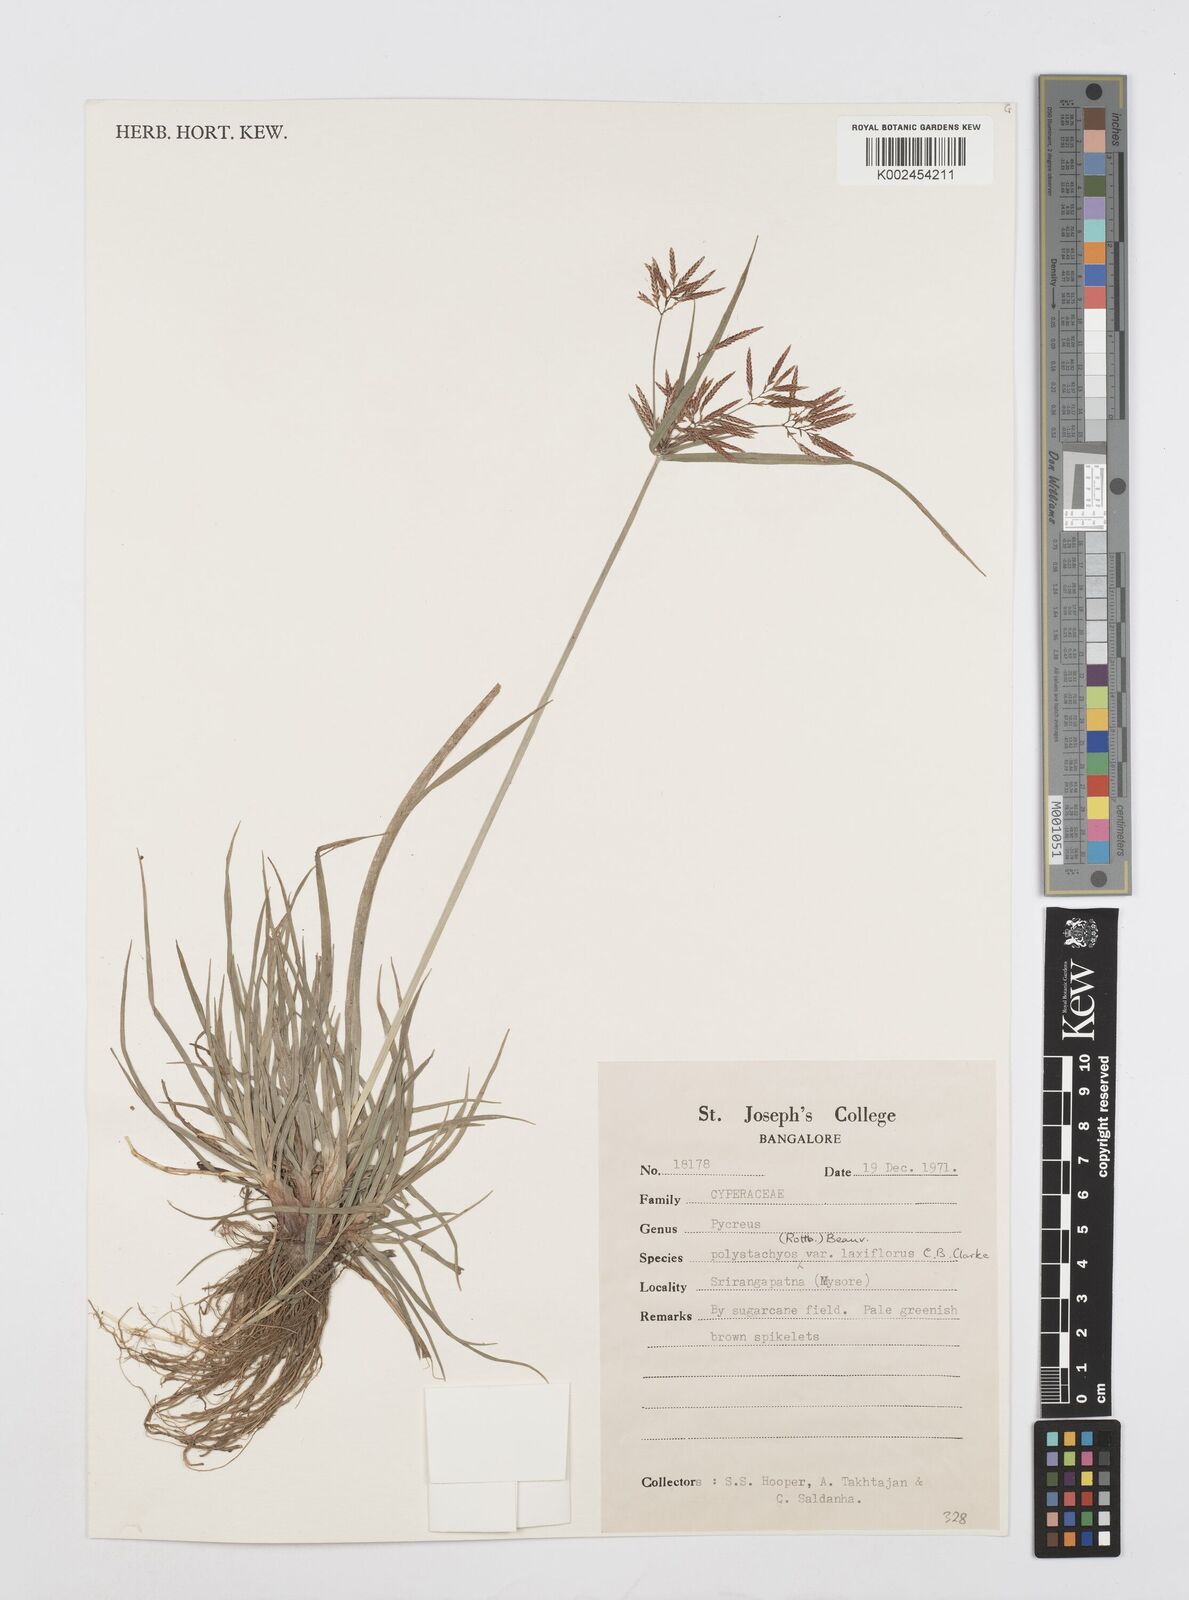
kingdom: Plantae
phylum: Tracheophyta
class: Liliopsida
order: Poales
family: Cyperaceae
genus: Cyperus
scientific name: Cyperus polystachyos
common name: Bunchy flat sedge
